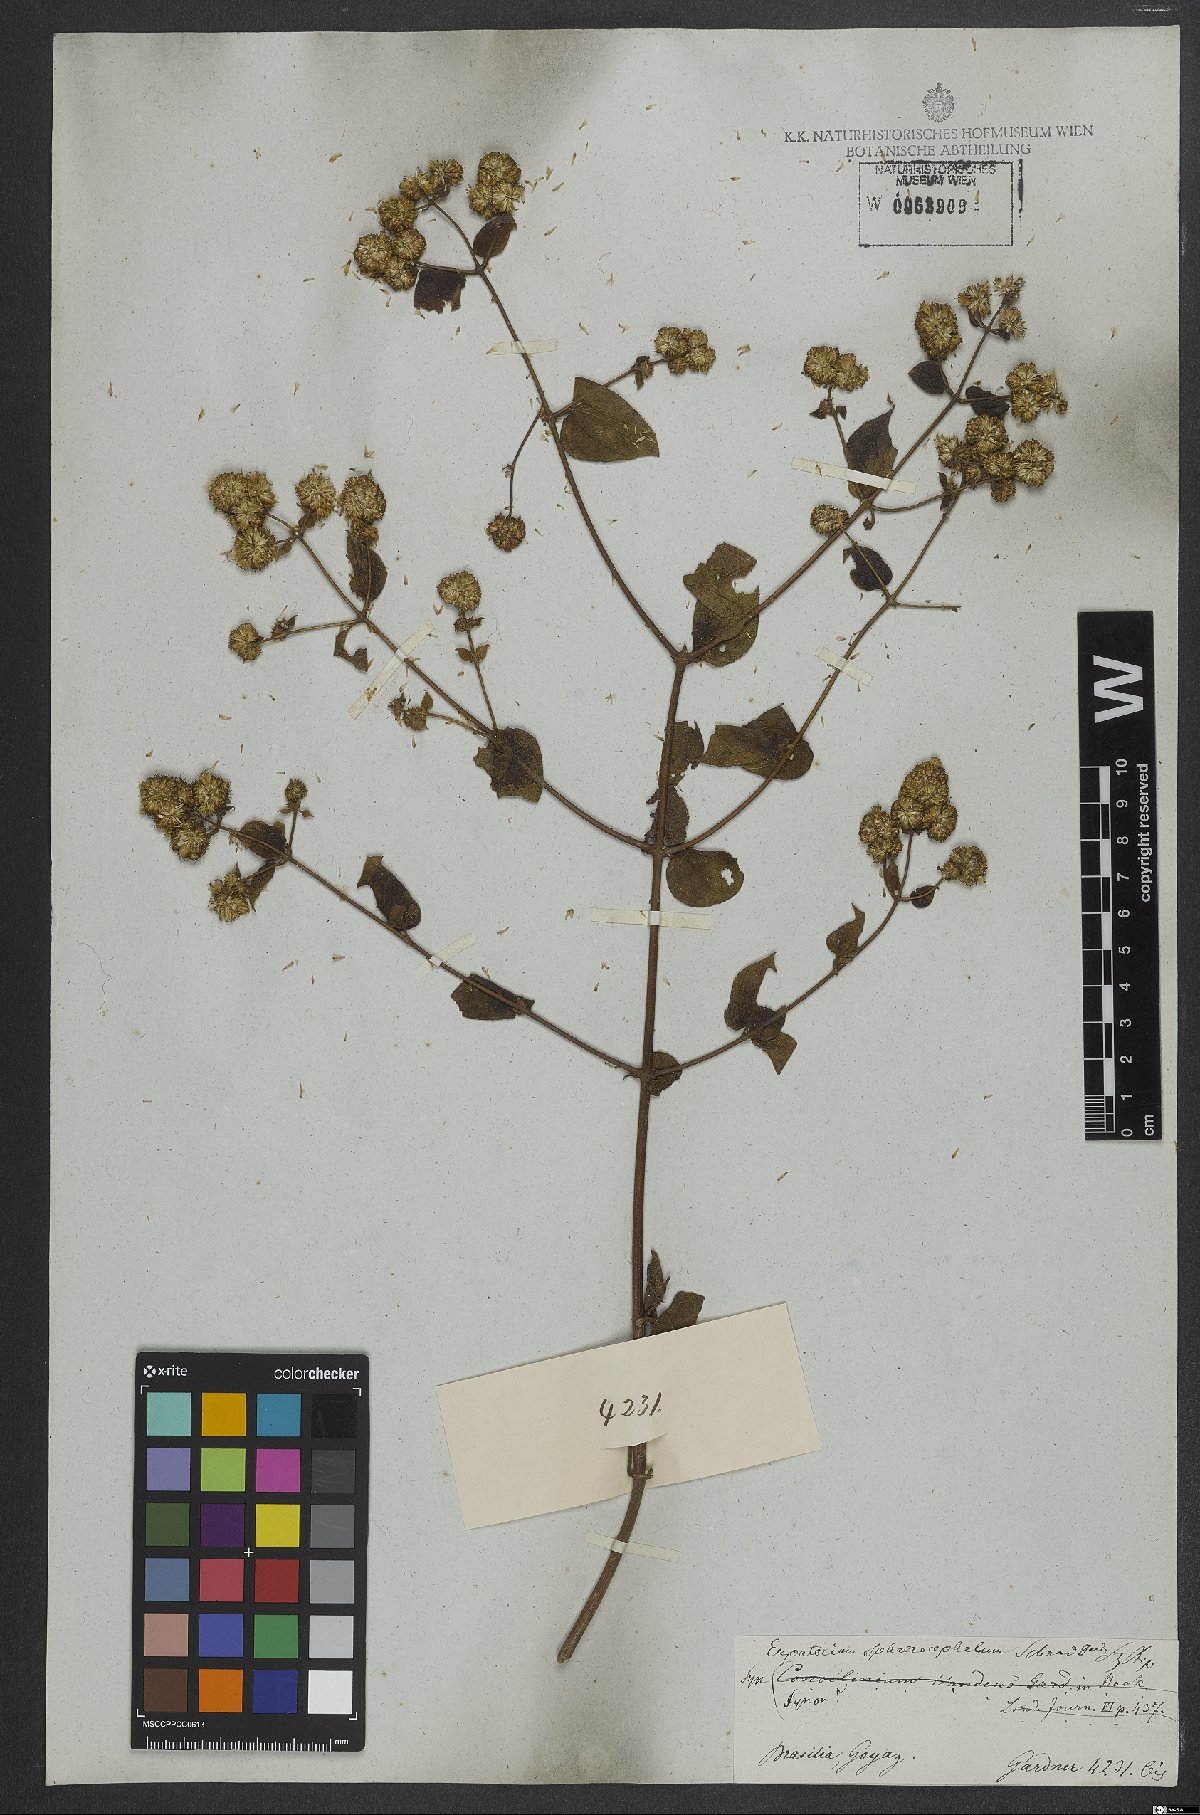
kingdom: Plantae
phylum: Tracheophyta
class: Magnoliopsida
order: Asterales
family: Asteraceae
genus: Sphaereupatorium
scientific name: Sphaereupatorium scandens
